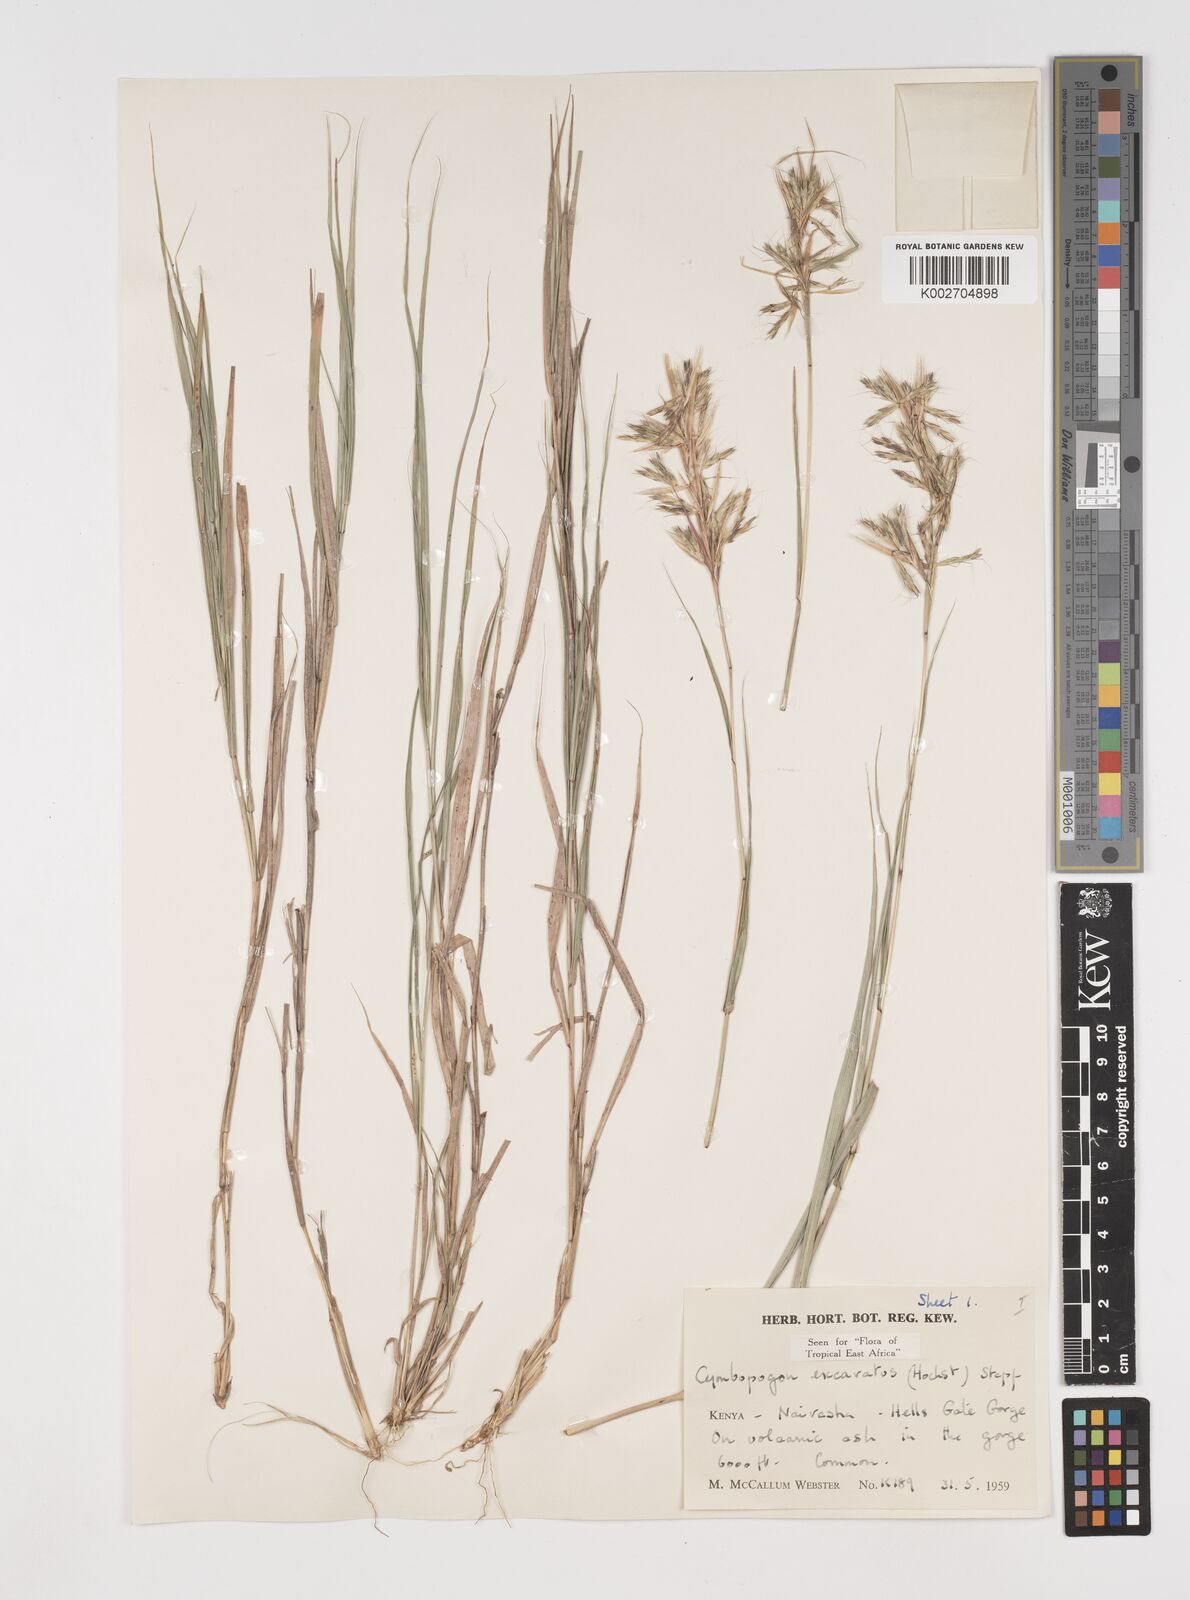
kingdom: Plantae
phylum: Tracheophyta
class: Liliopsida
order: Poales
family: Poaceae
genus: Cymbopogon
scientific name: Cymbopogon caesius
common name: Kachi grass
